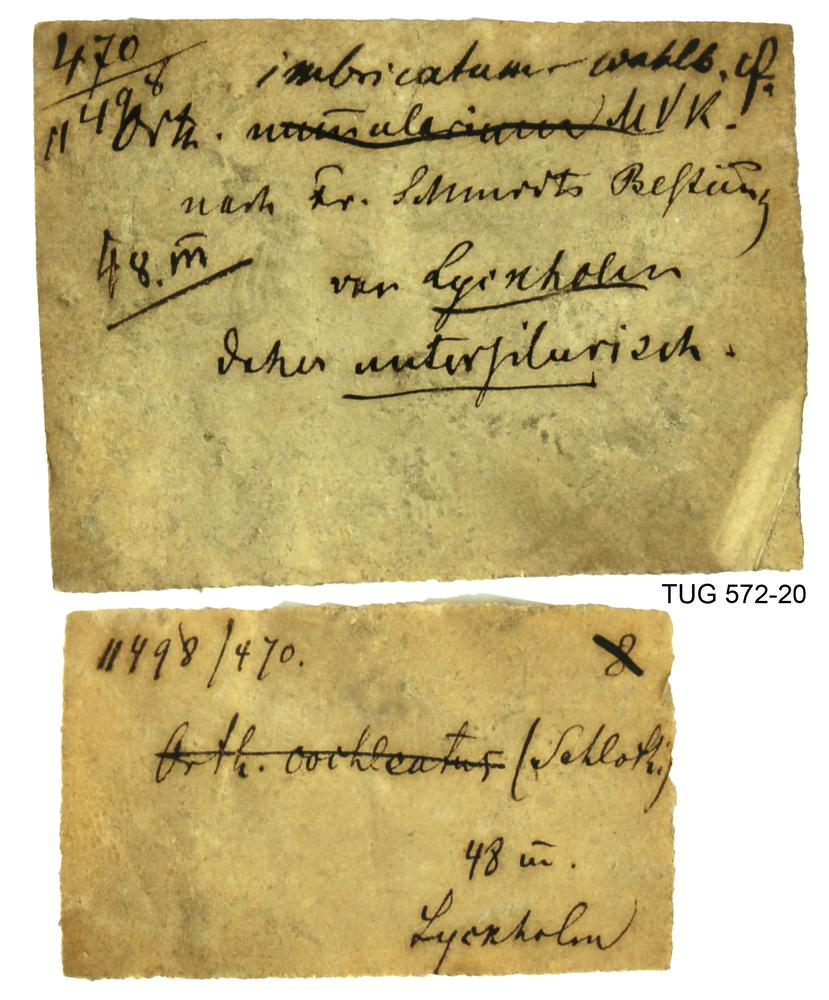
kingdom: Animalia
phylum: Mollusca
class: Cephalopoda
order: Orthocerida
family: Orthoceratidae
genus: Orthoceras
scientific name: Orthoceras
